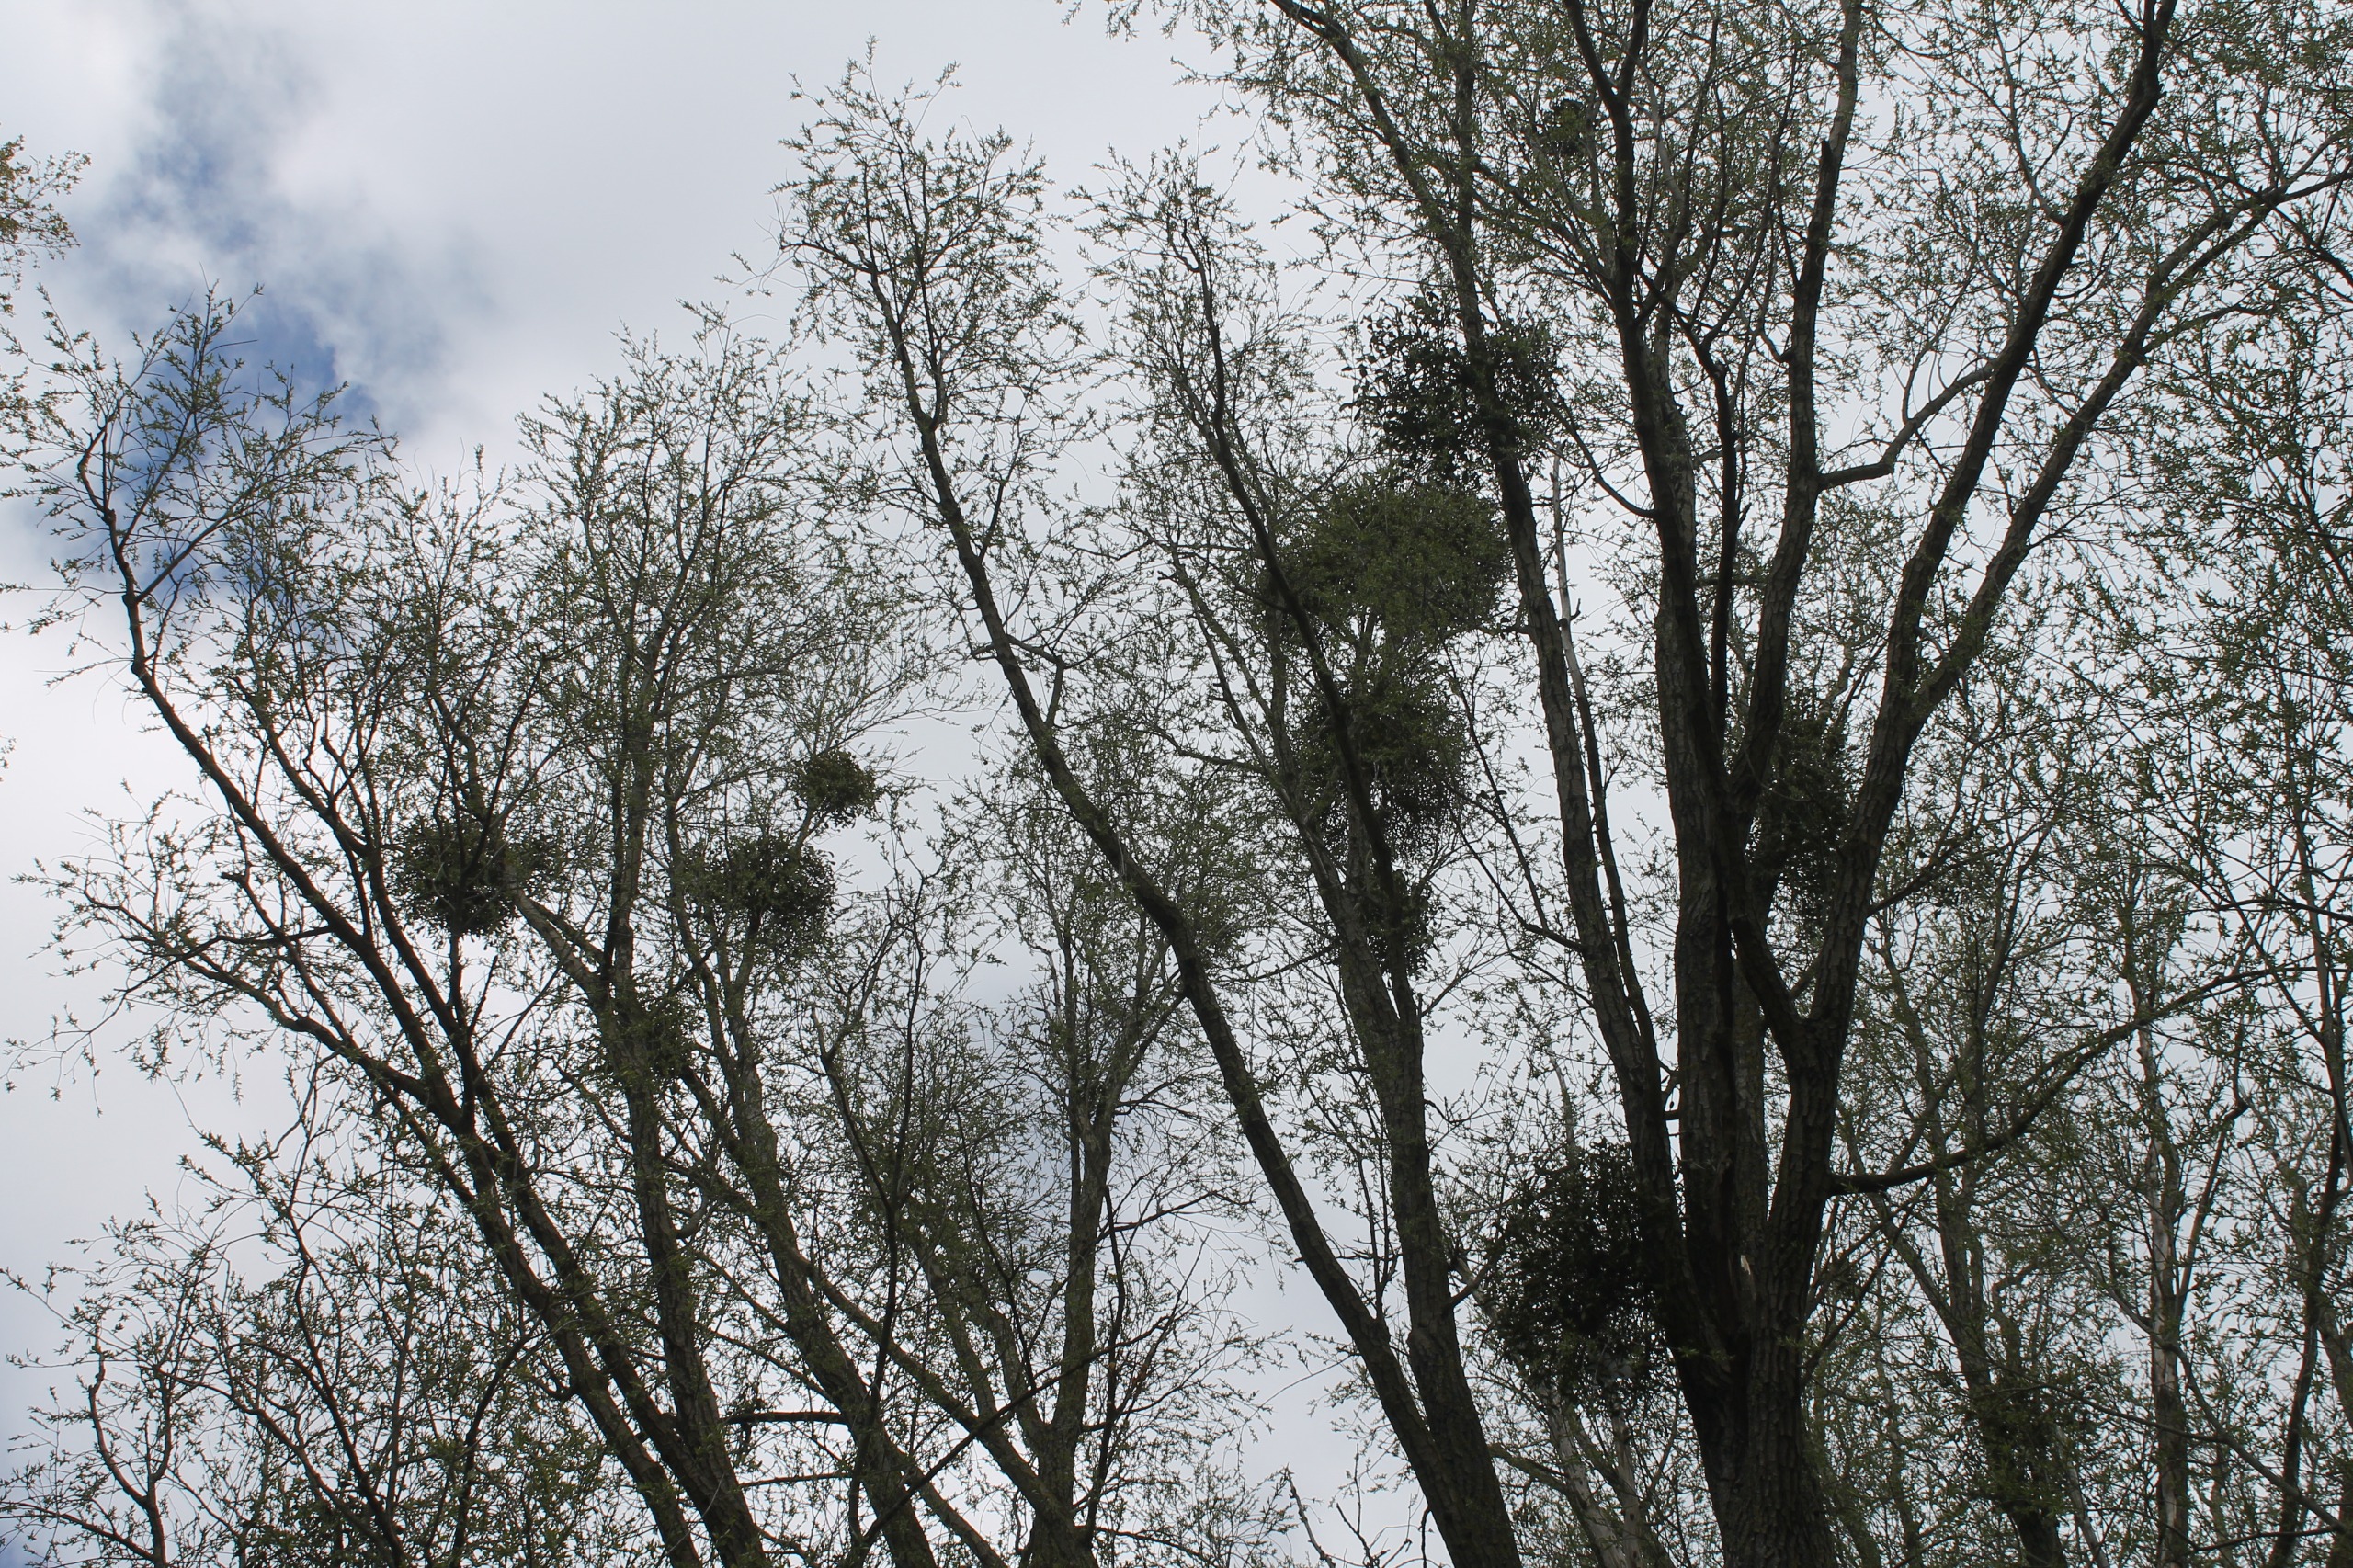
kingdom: Plantae
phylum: Tracheophyta
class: Magnoliopsida
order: Santalales
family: Viscaceae
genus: Viscum
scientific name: Viscum album
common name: Mistelten
